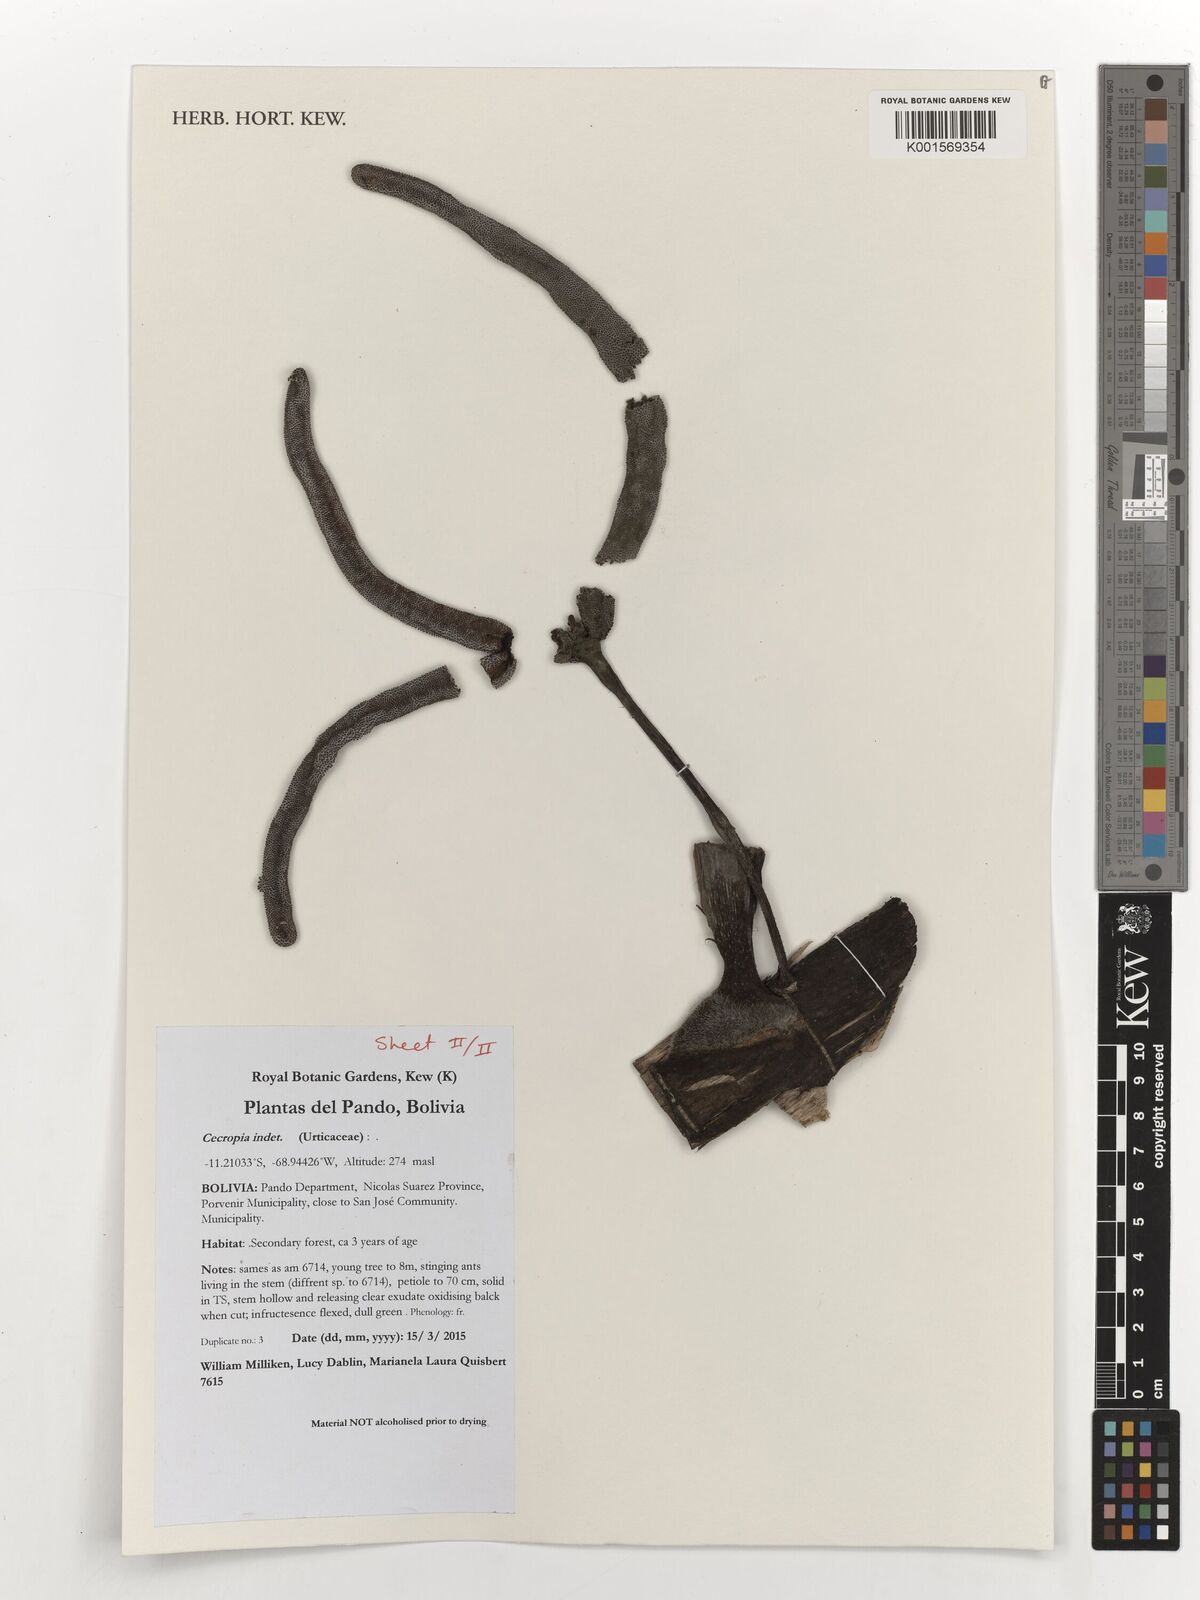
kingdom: Plantae
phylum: Tracheophyta
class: Magnoliopsida
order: Rosales
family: Urticaceae
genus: Cecropia
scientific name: Cecropia
